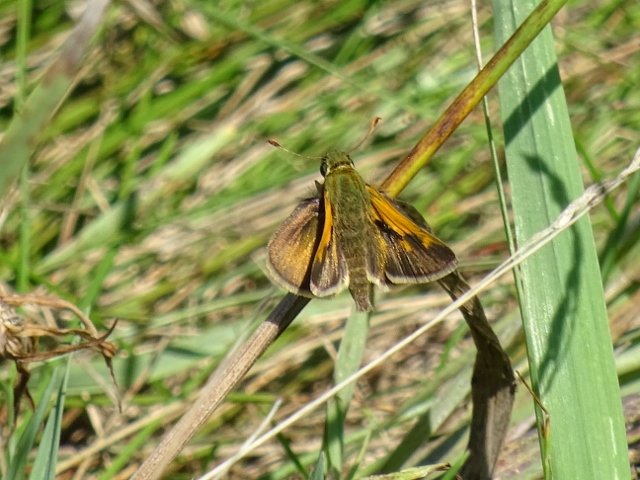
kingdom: Animalia
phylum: Arthropoda
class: Insecta
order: Lepidoptera
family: Hesperiidae
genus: Polites
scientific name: Polites themistocles
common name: Tawny-edged Skipper
